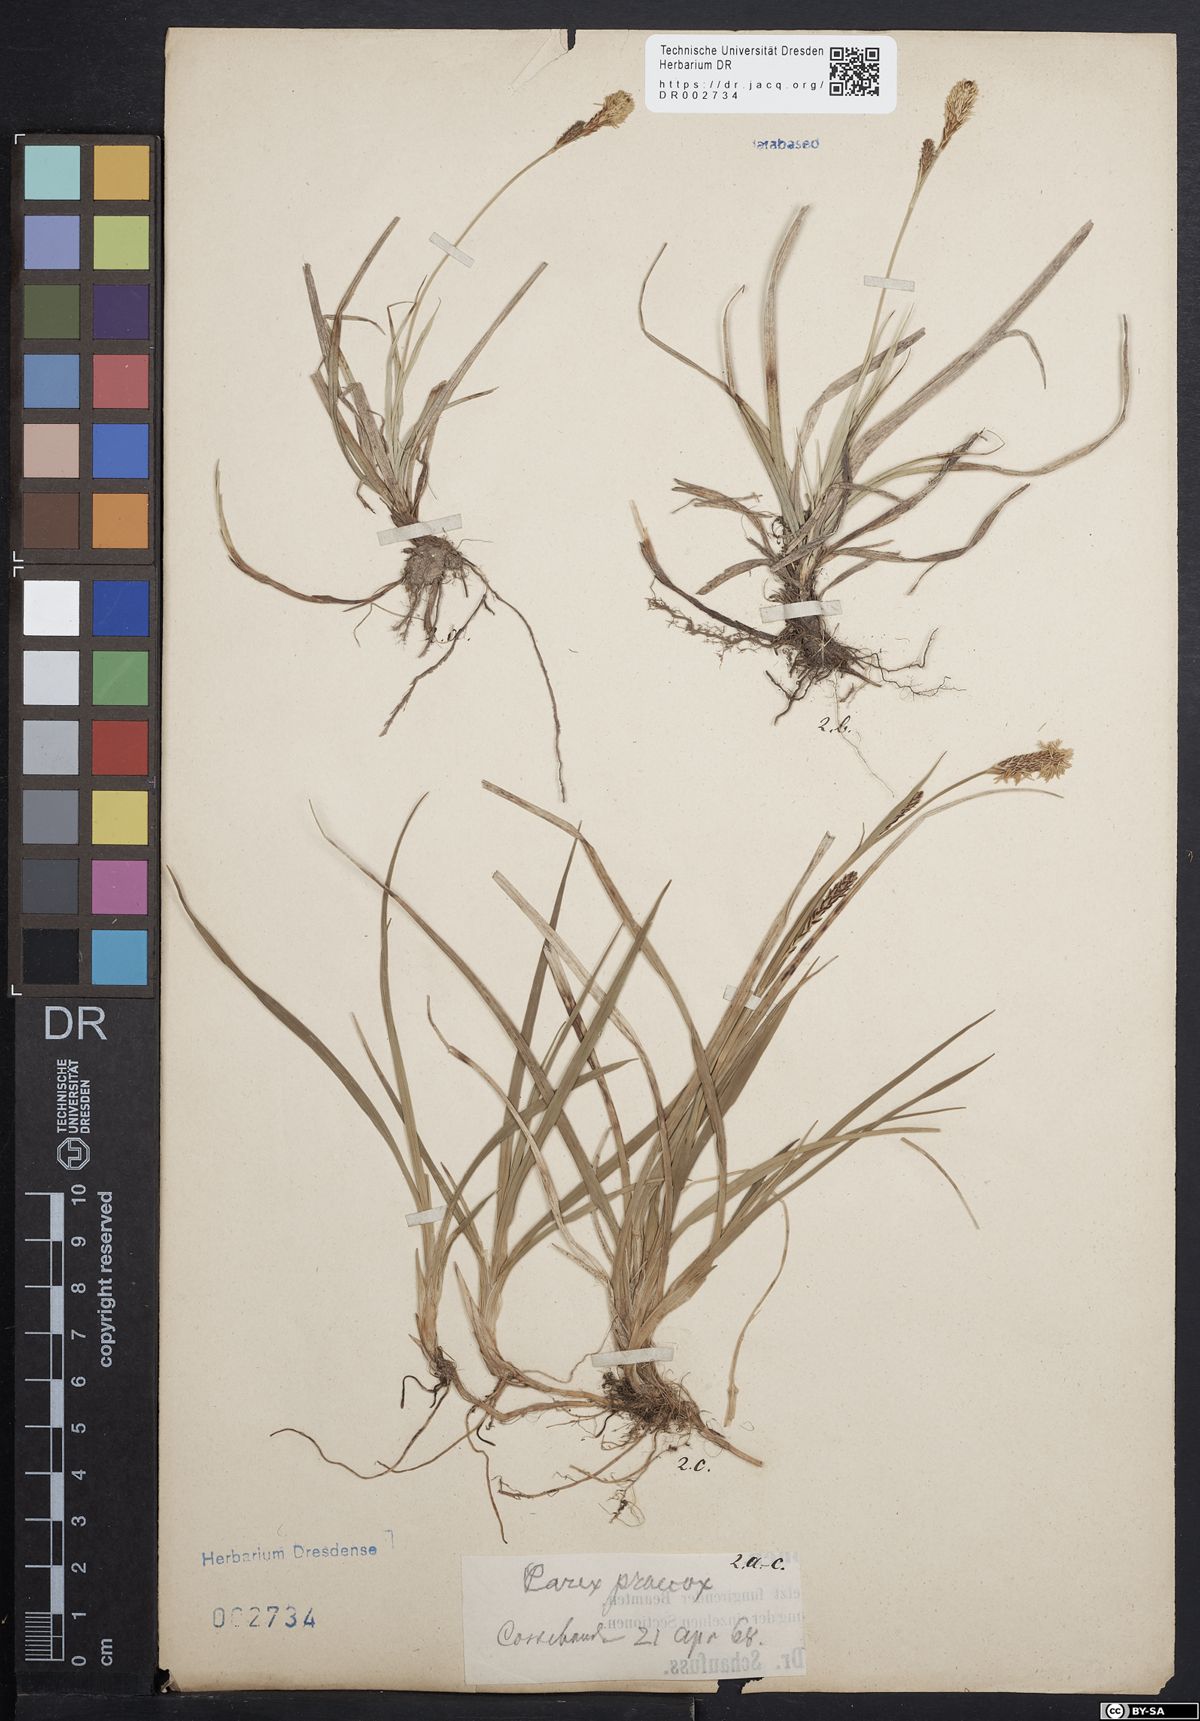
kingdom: Plantae
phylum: Tracheophyta
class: Liliopsida
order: Poales
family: Cyperaceae
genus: Carex
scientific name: Carex caryophyllea
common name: Spring sedge
